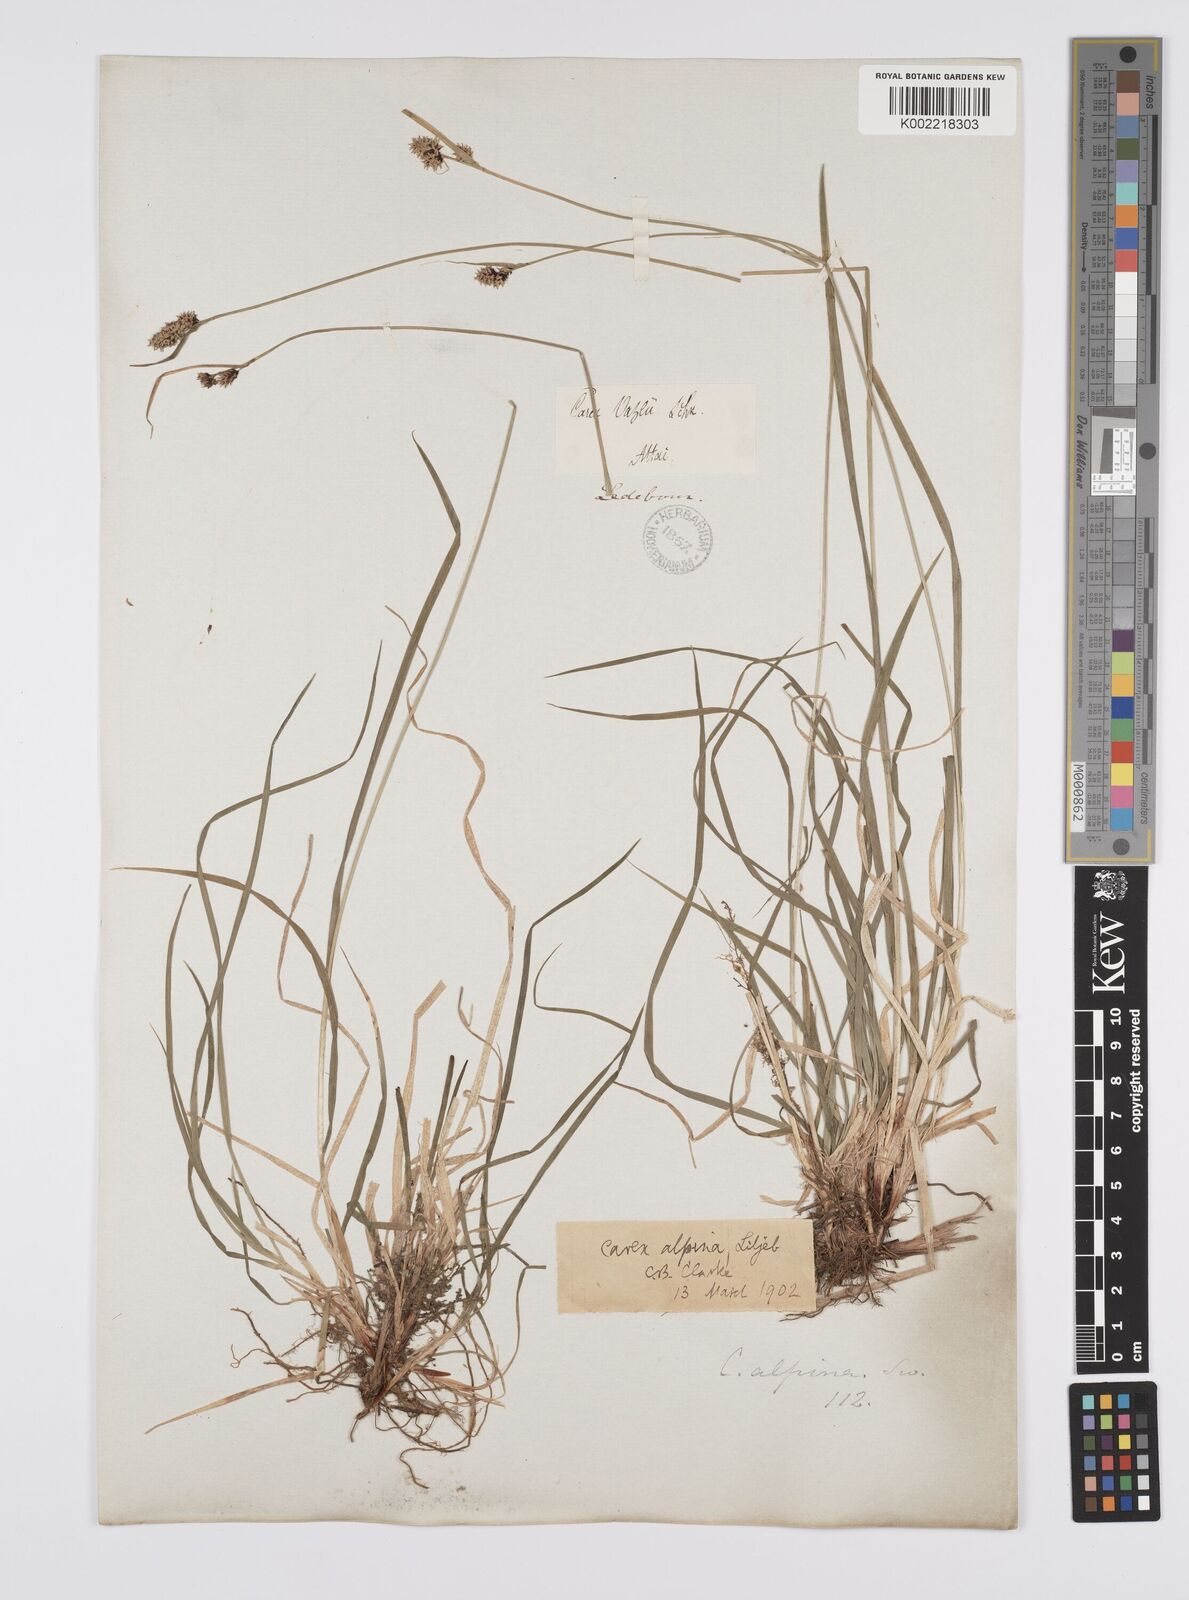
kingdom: Plantae
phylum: Tracheophyta
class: Liliopsida
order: Poales
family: Cyperaceae
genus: Carex
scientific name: Carex nigra
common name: Common sedge
